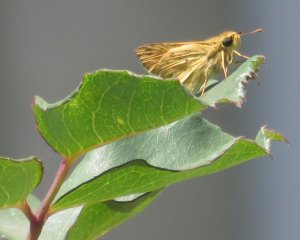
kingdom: Animalia
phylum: Arthropoda
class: Insecta
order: Lepidoptera
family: Hesperiidae
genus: Hylephila
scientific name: Hylephila phyleus
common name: Fiery Skipper
